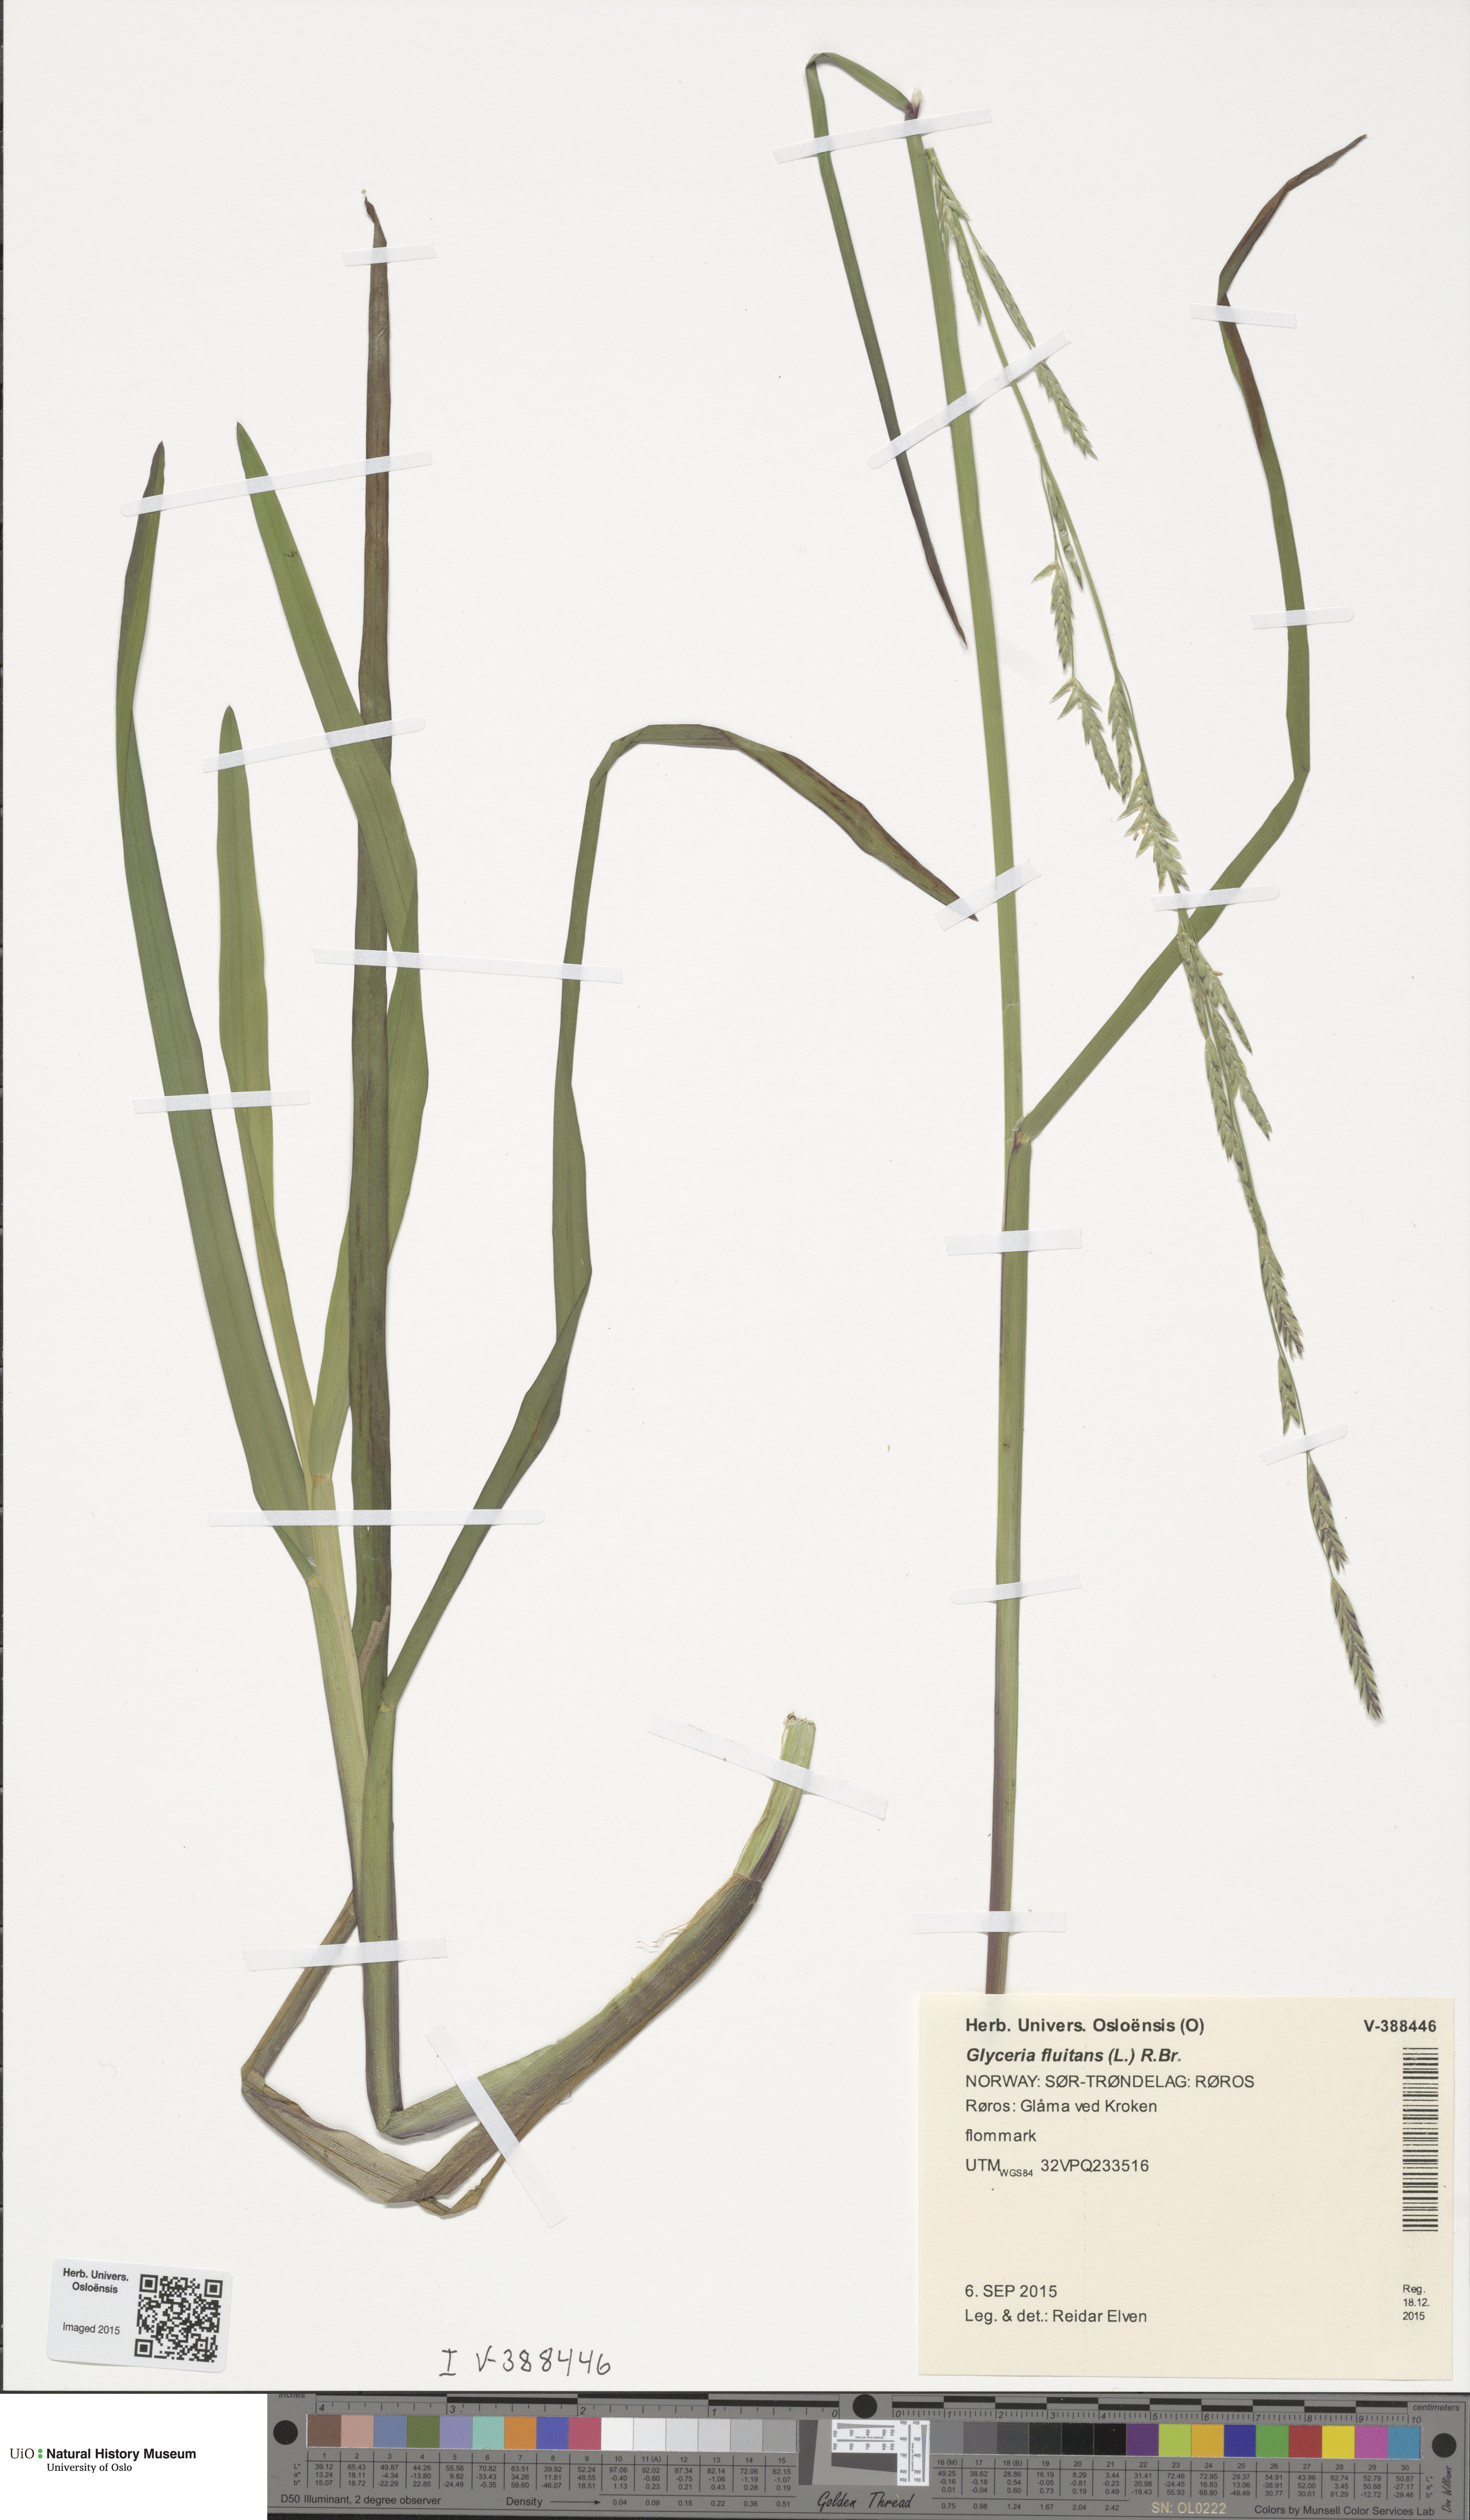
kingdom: Plantae
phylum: Tracheophyta
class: Liliopsida
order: Poales
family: Poaceae
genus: Glyceria
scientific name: Glyceria fluitans
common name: Floating sweet-grass
